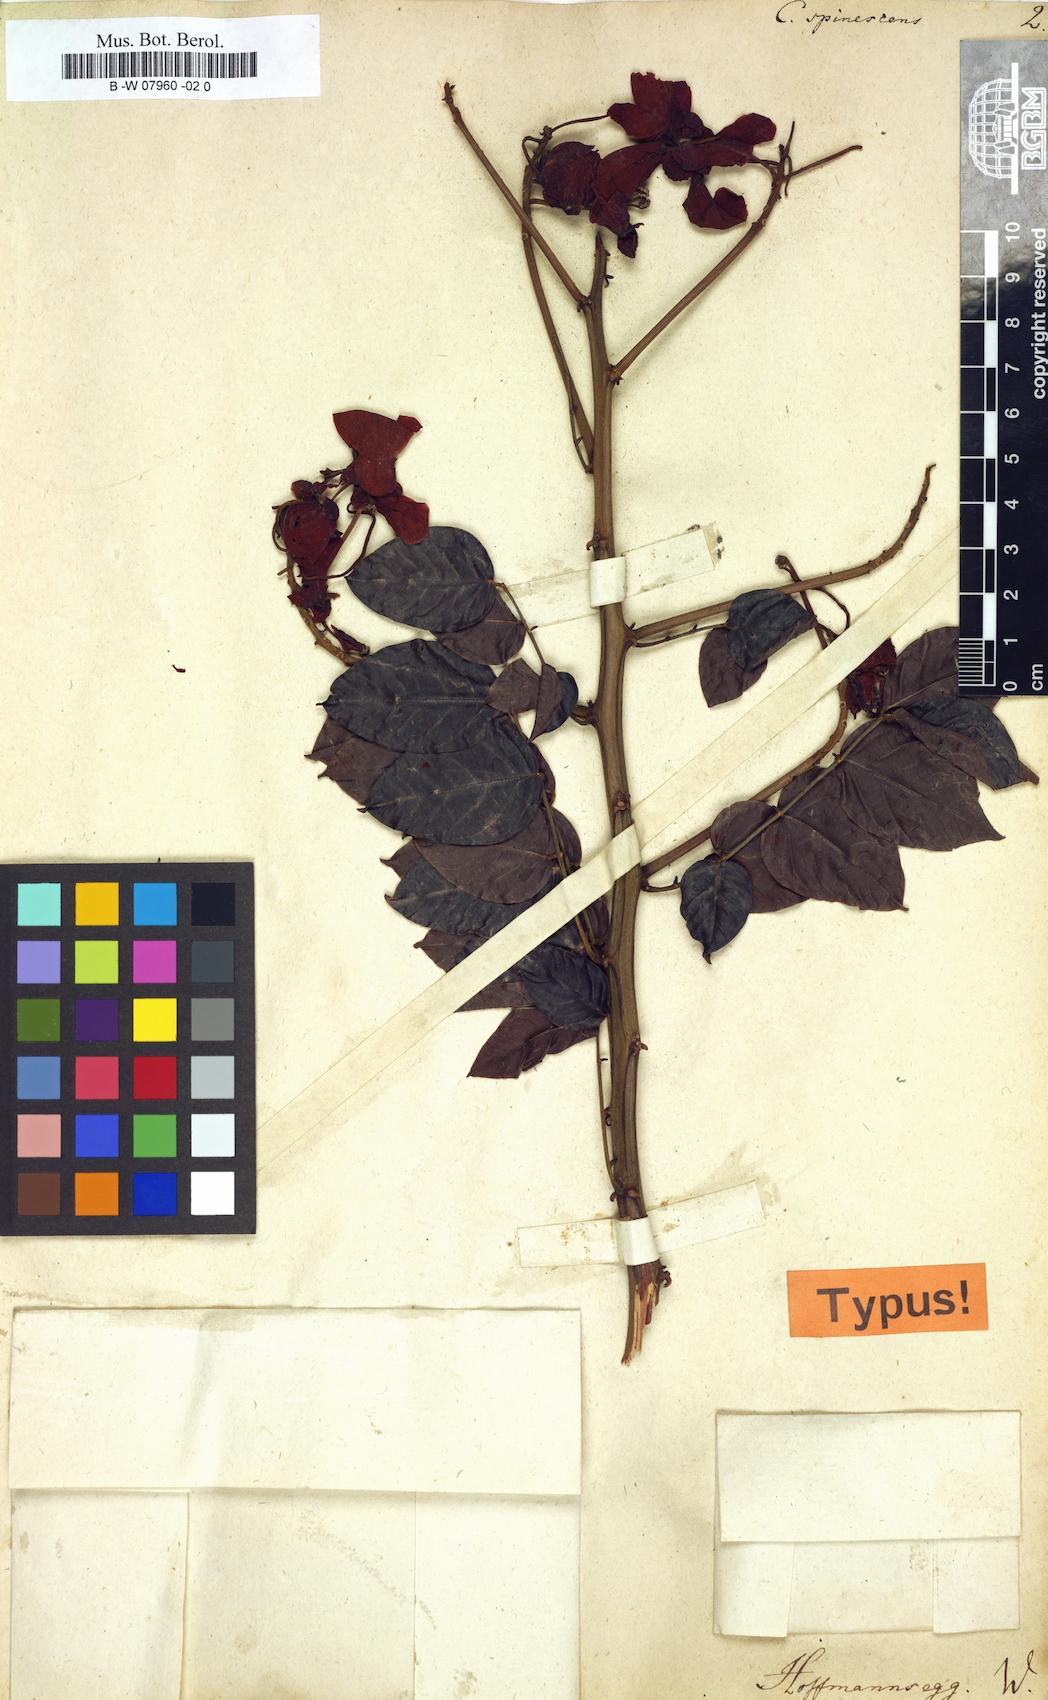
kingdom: Plantae
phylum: Tracheophyta
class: Magnoliopsida
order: Fabales
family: Fabaceae
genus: Senna
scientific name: Senna spinescens
